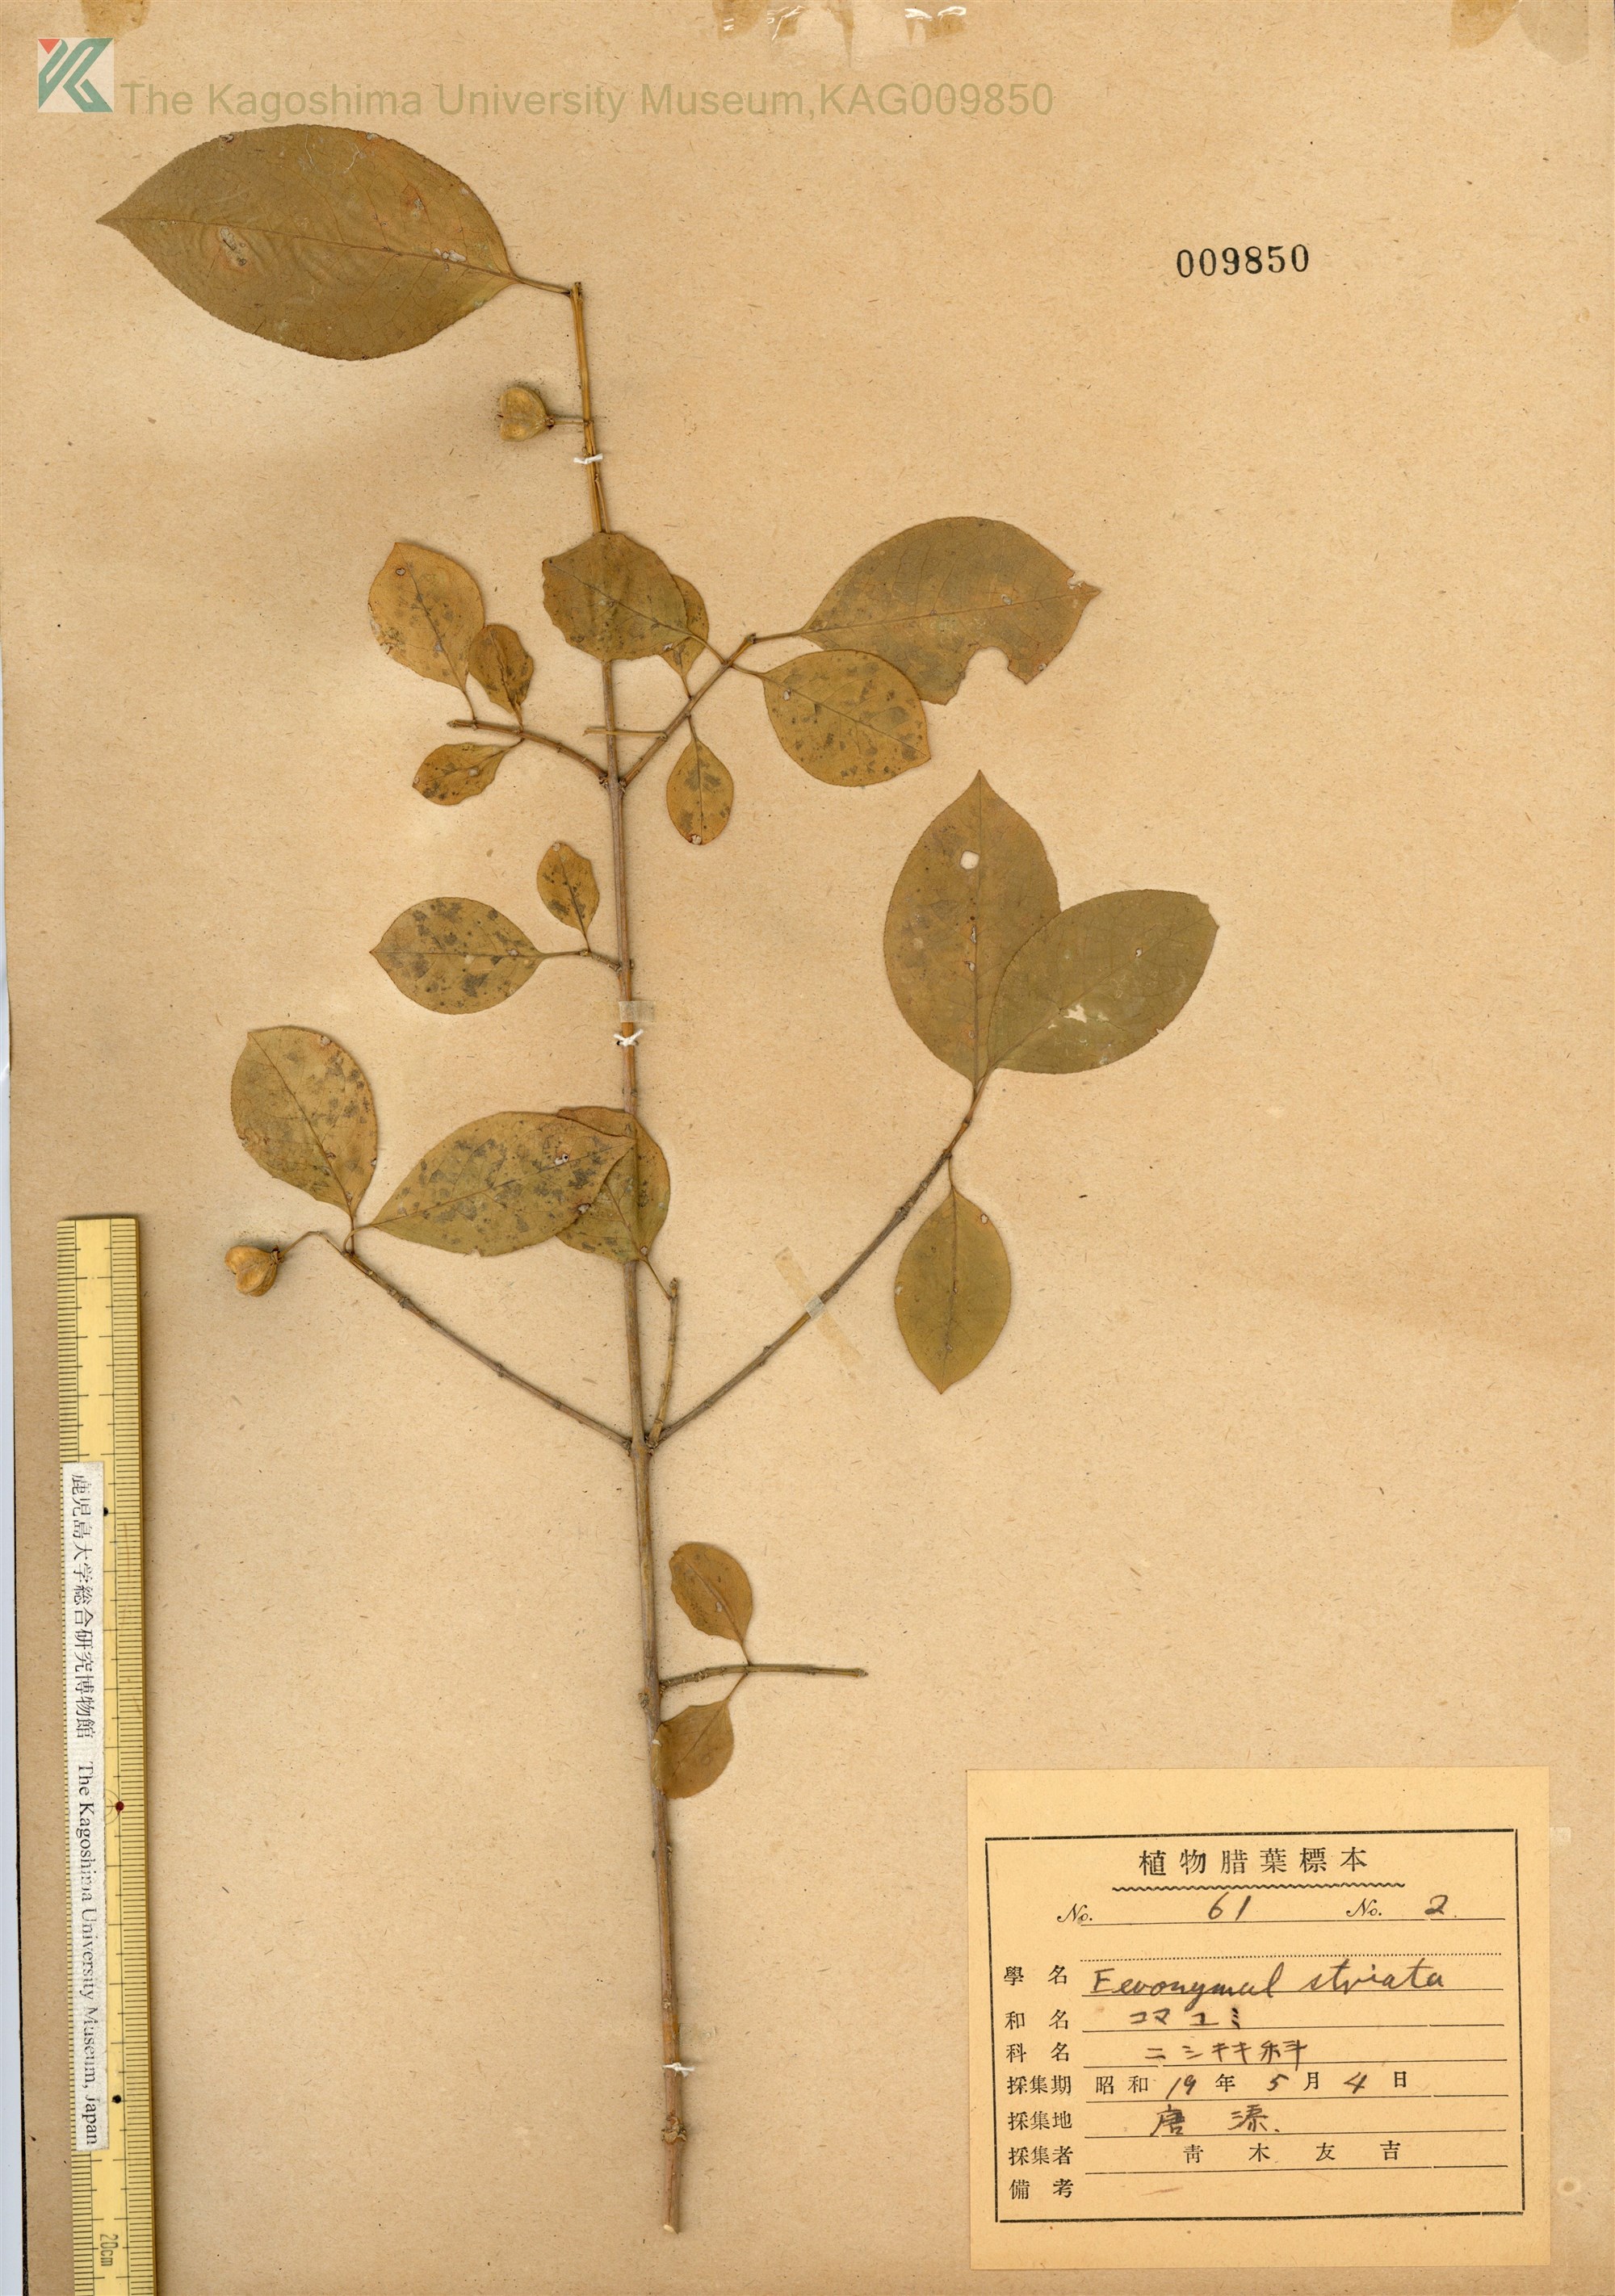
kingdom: Plantae
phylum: Tracheophyta
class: Magnoliopsida
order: Celastrales
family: Celastraceae
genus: Euonymus
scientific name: Euonymus hamiltonianus
